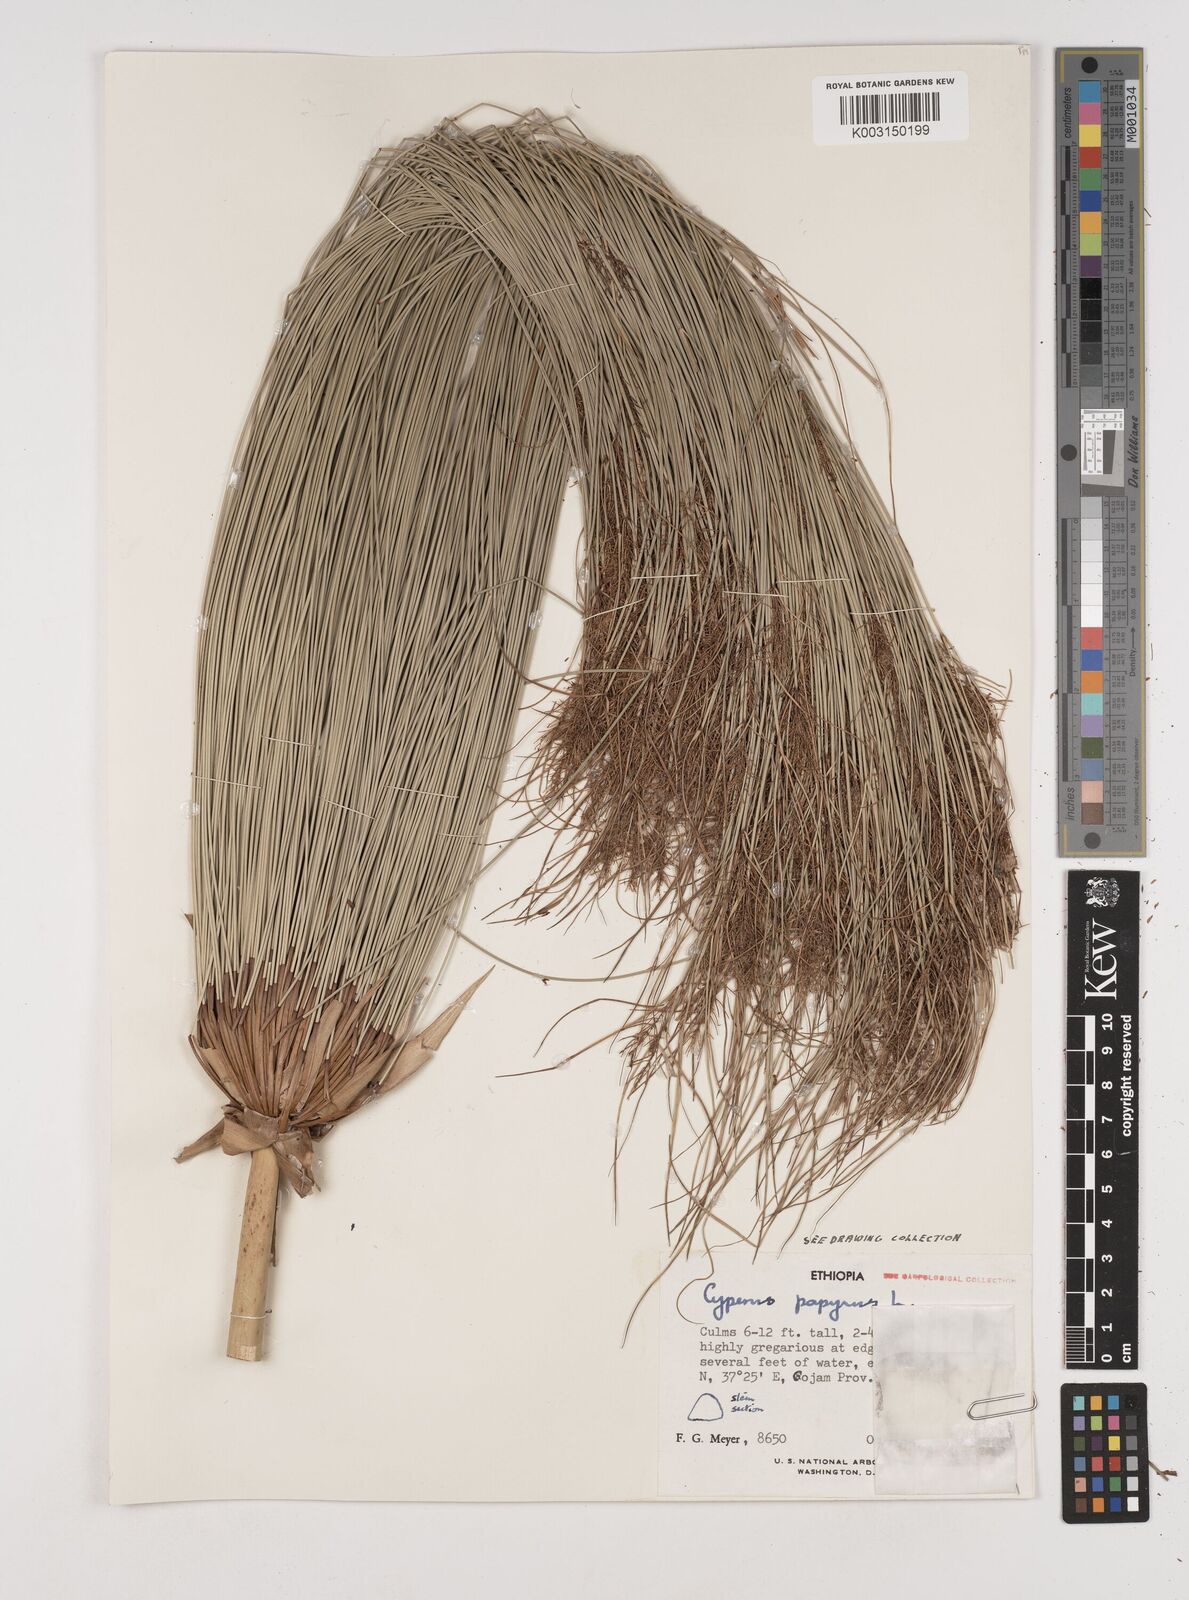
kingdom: Plantae
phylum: Tracheophyta
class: Liliopsida
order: Poales
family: Cyperaceae
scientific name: Cyperaceae
